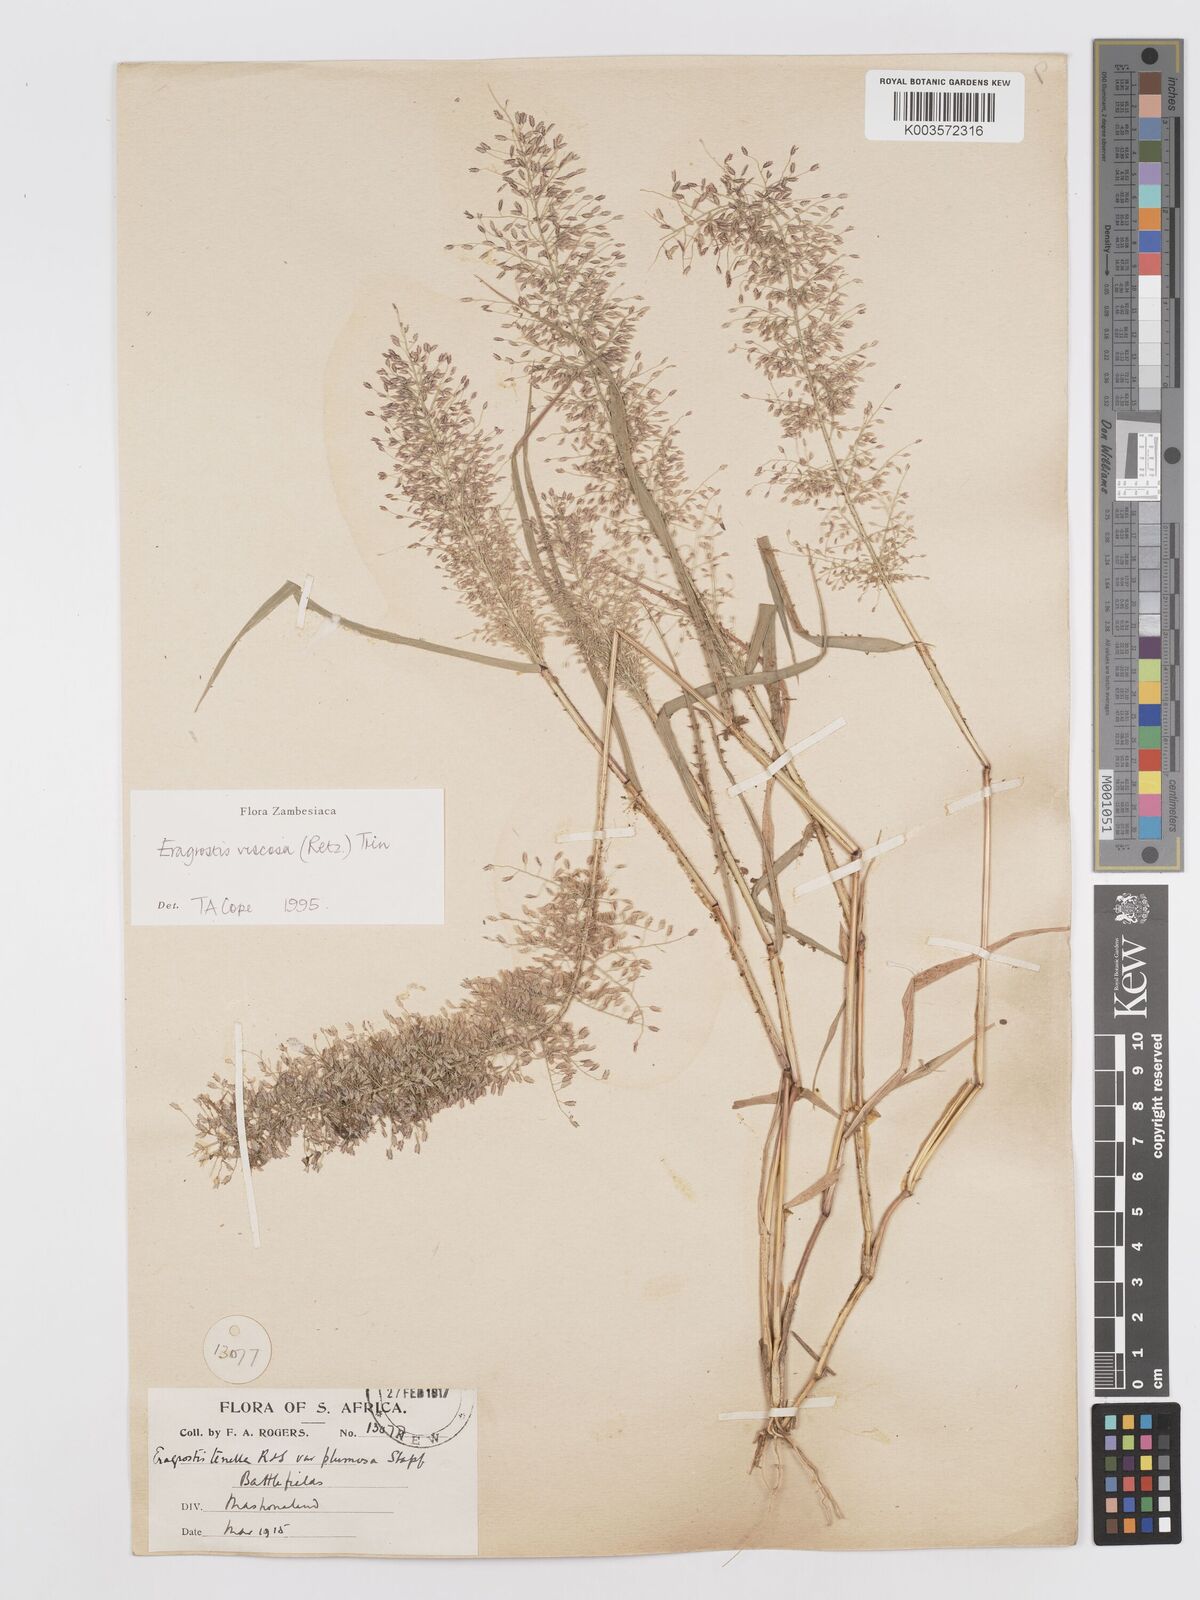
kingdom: Plantae
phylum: Tracheophyta
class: Liliopsida
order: Poales
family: Poaceae
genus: Eragrostis
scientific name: Eragrostis
